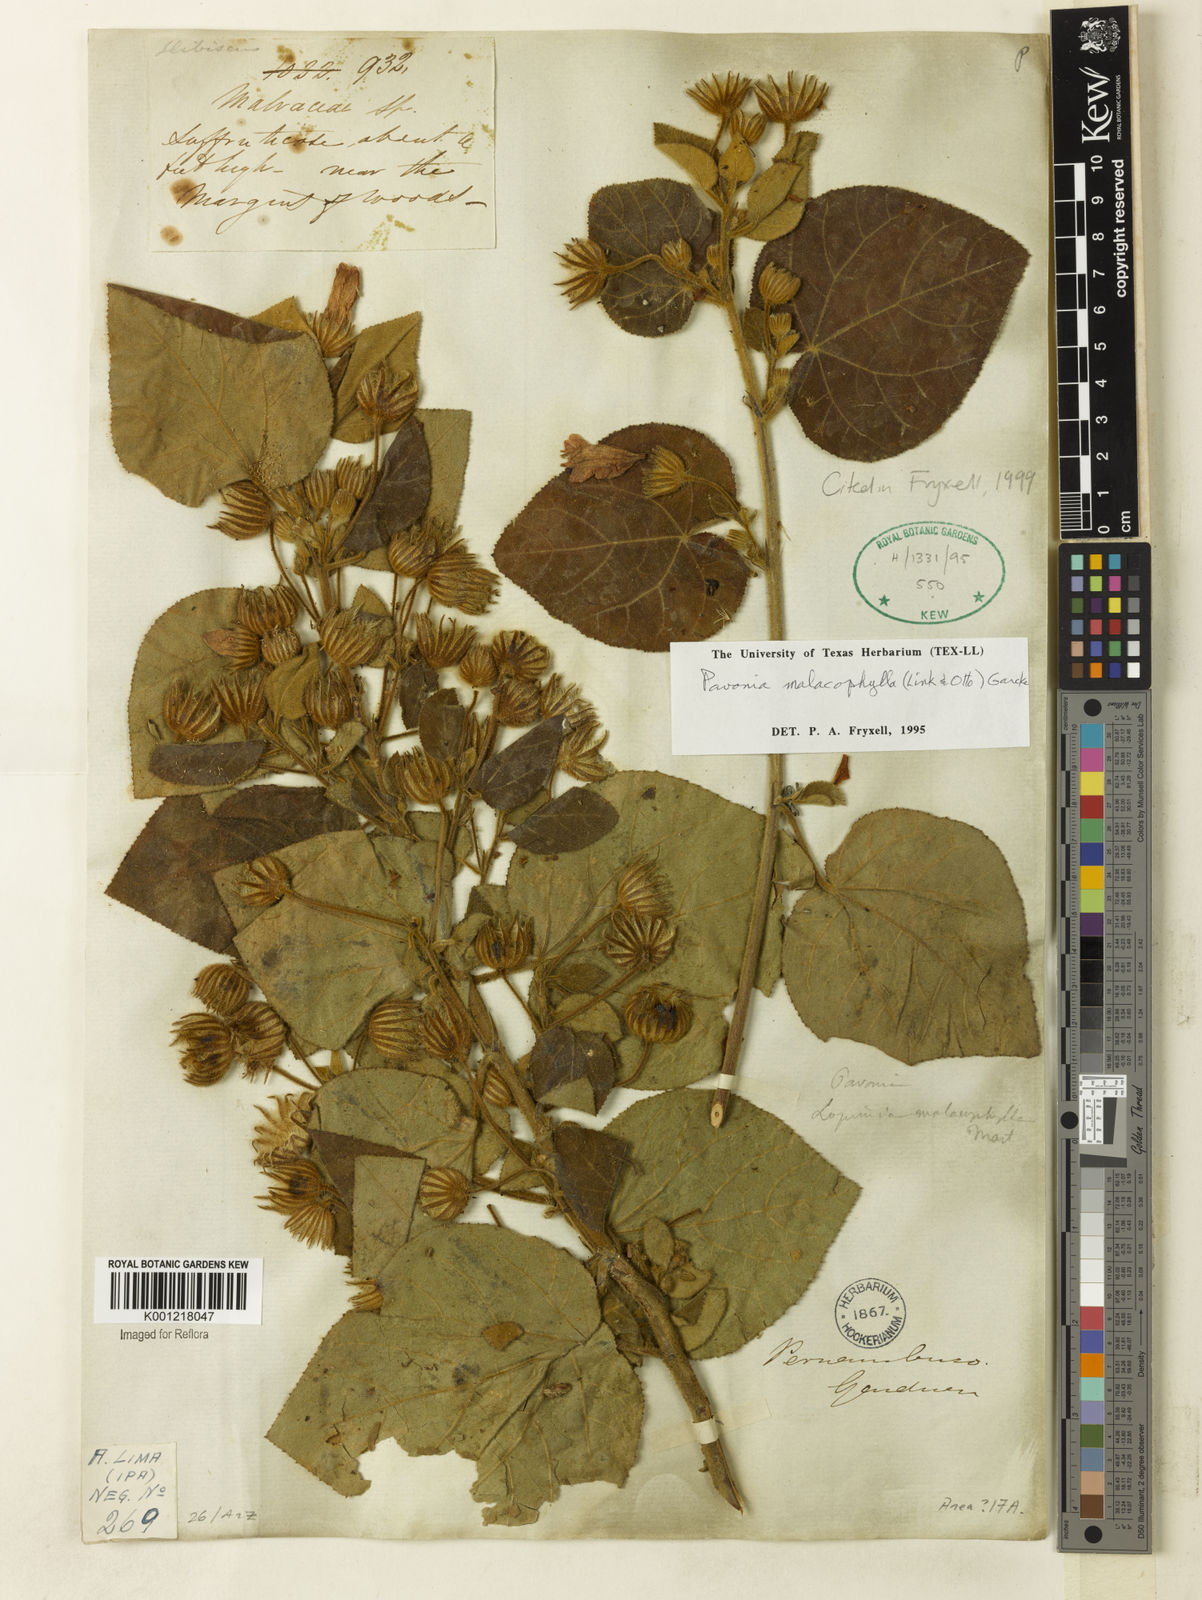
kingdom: Plantae
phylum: Tracheophyta
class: Magnoliopsida
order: Malvales
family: Malvaceae
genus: Pavonia
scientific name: Pavonia malacophylla
